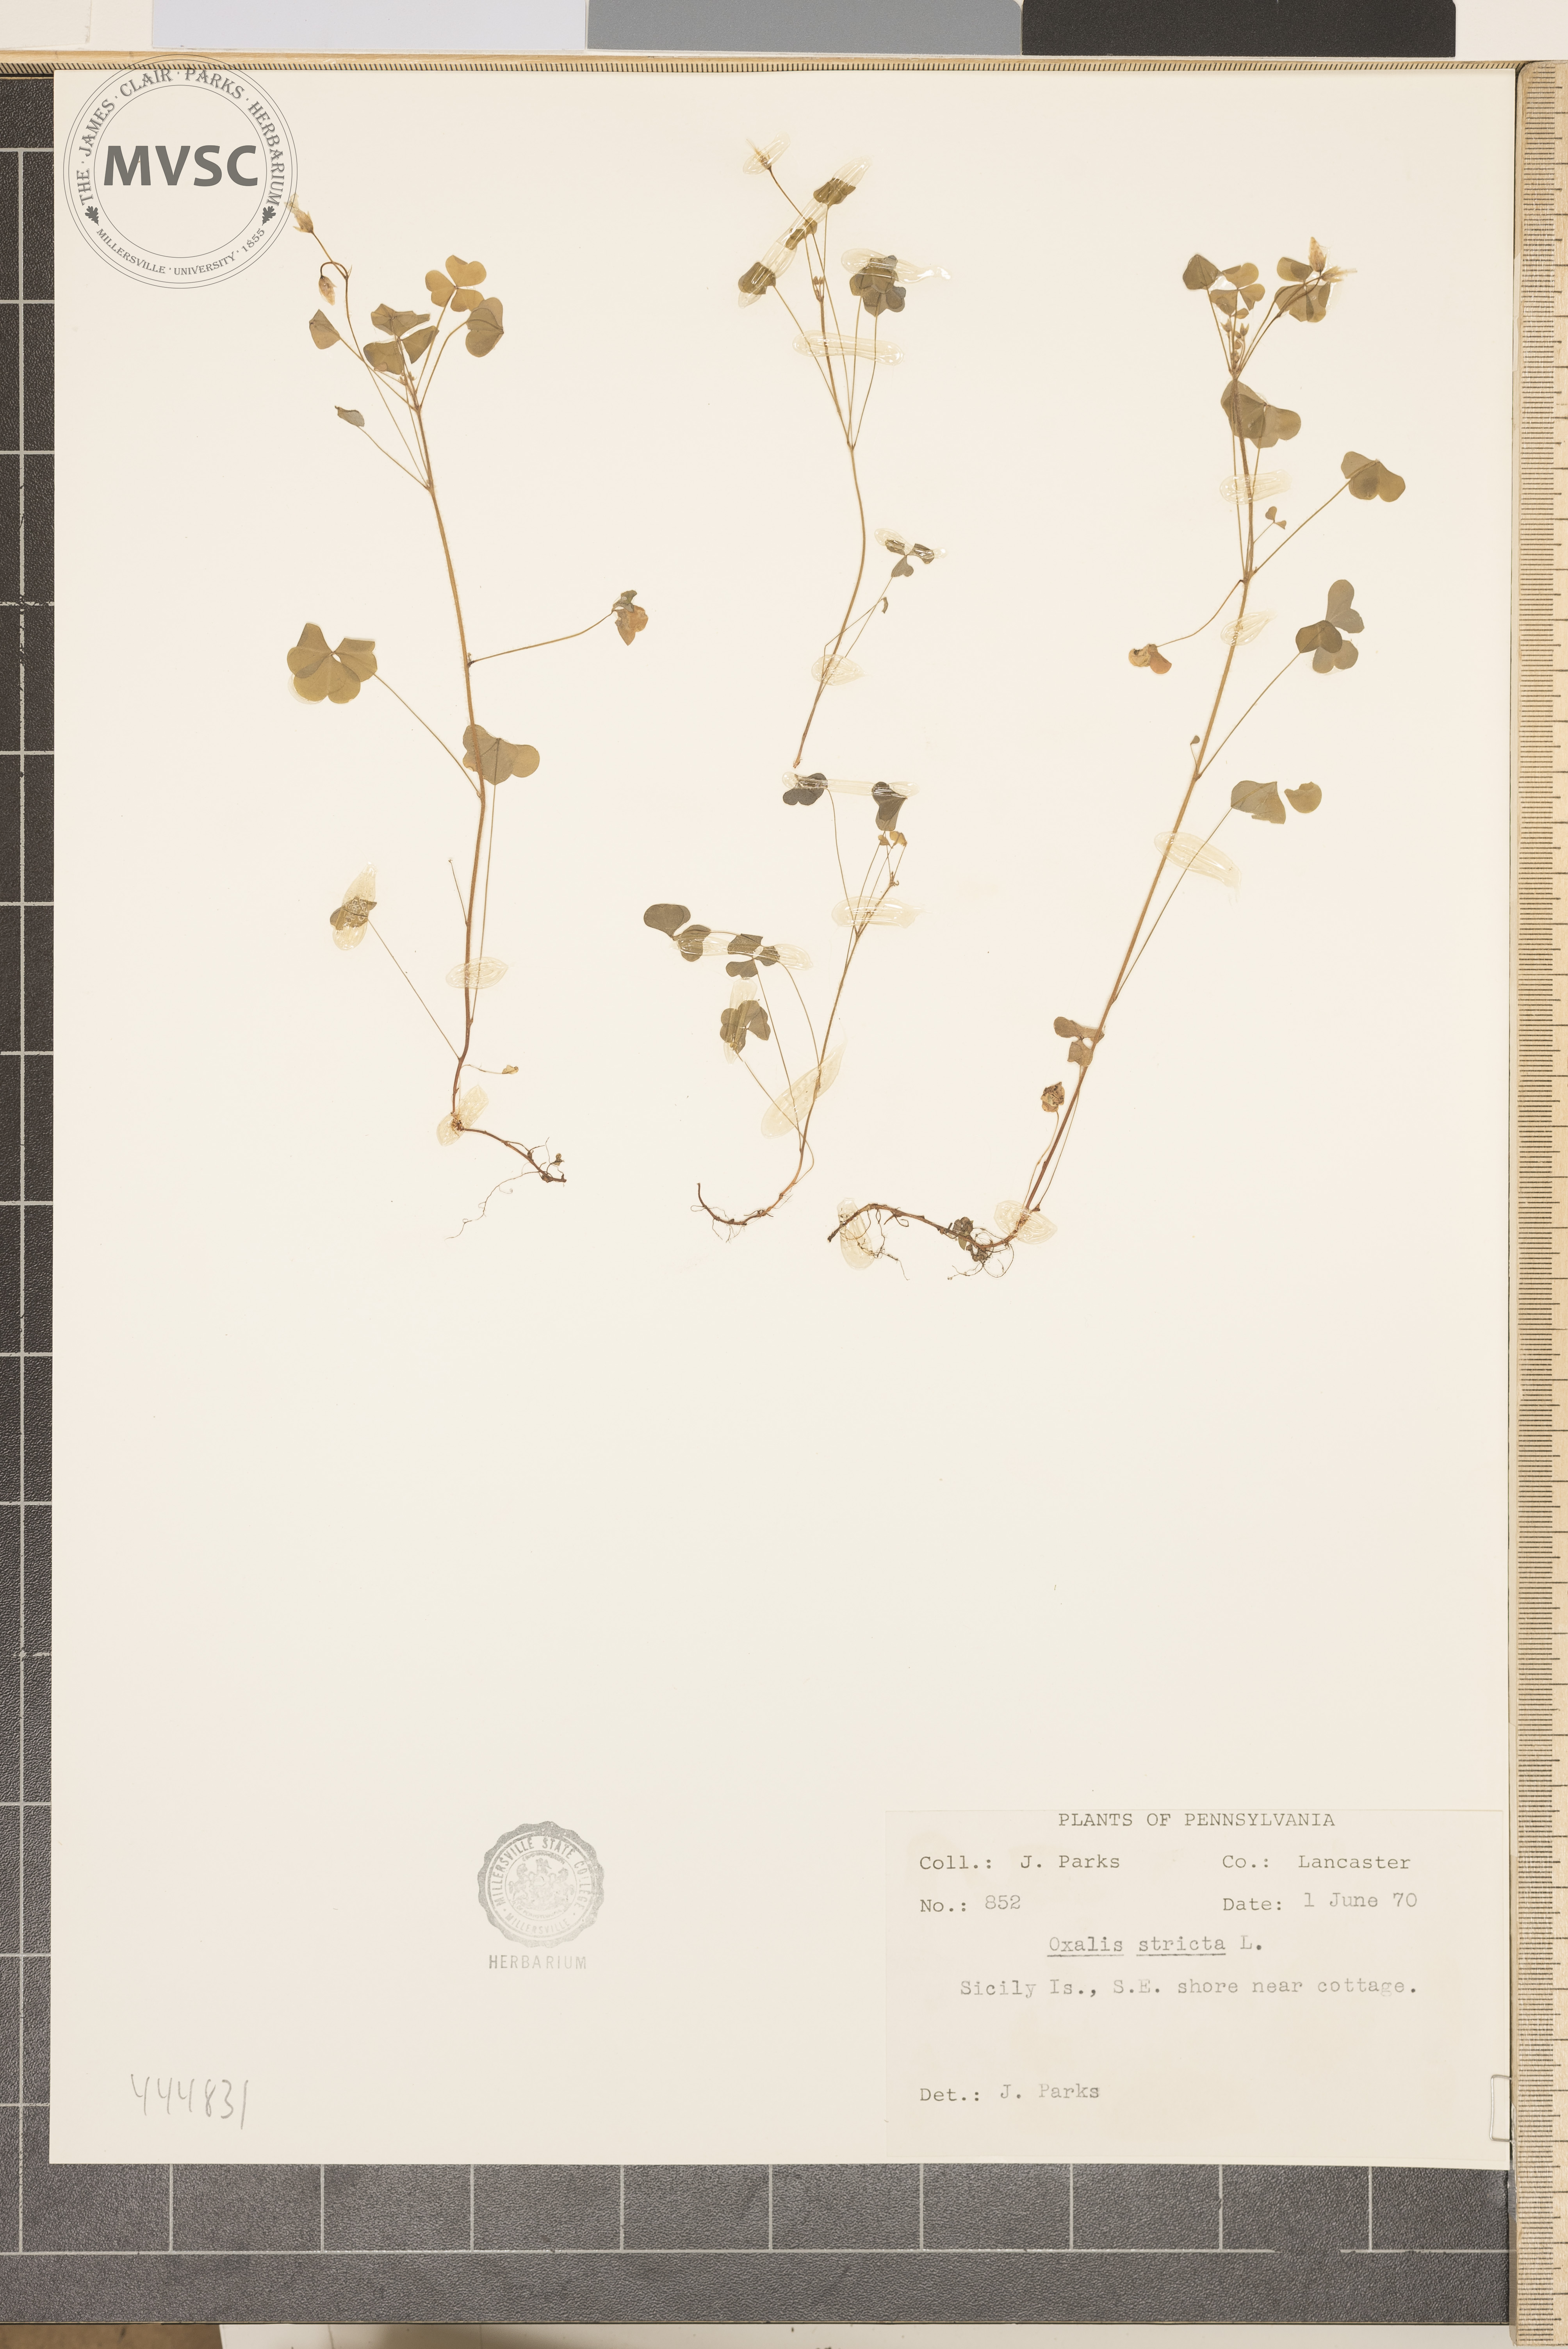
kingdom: Plantae
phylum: Tracheophyta
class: Magnoliopsida
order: Oxalidales
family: Oxalidaceae
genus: Oxalis
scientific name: Oxalis stricta
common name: Upright yellow-sorrel
